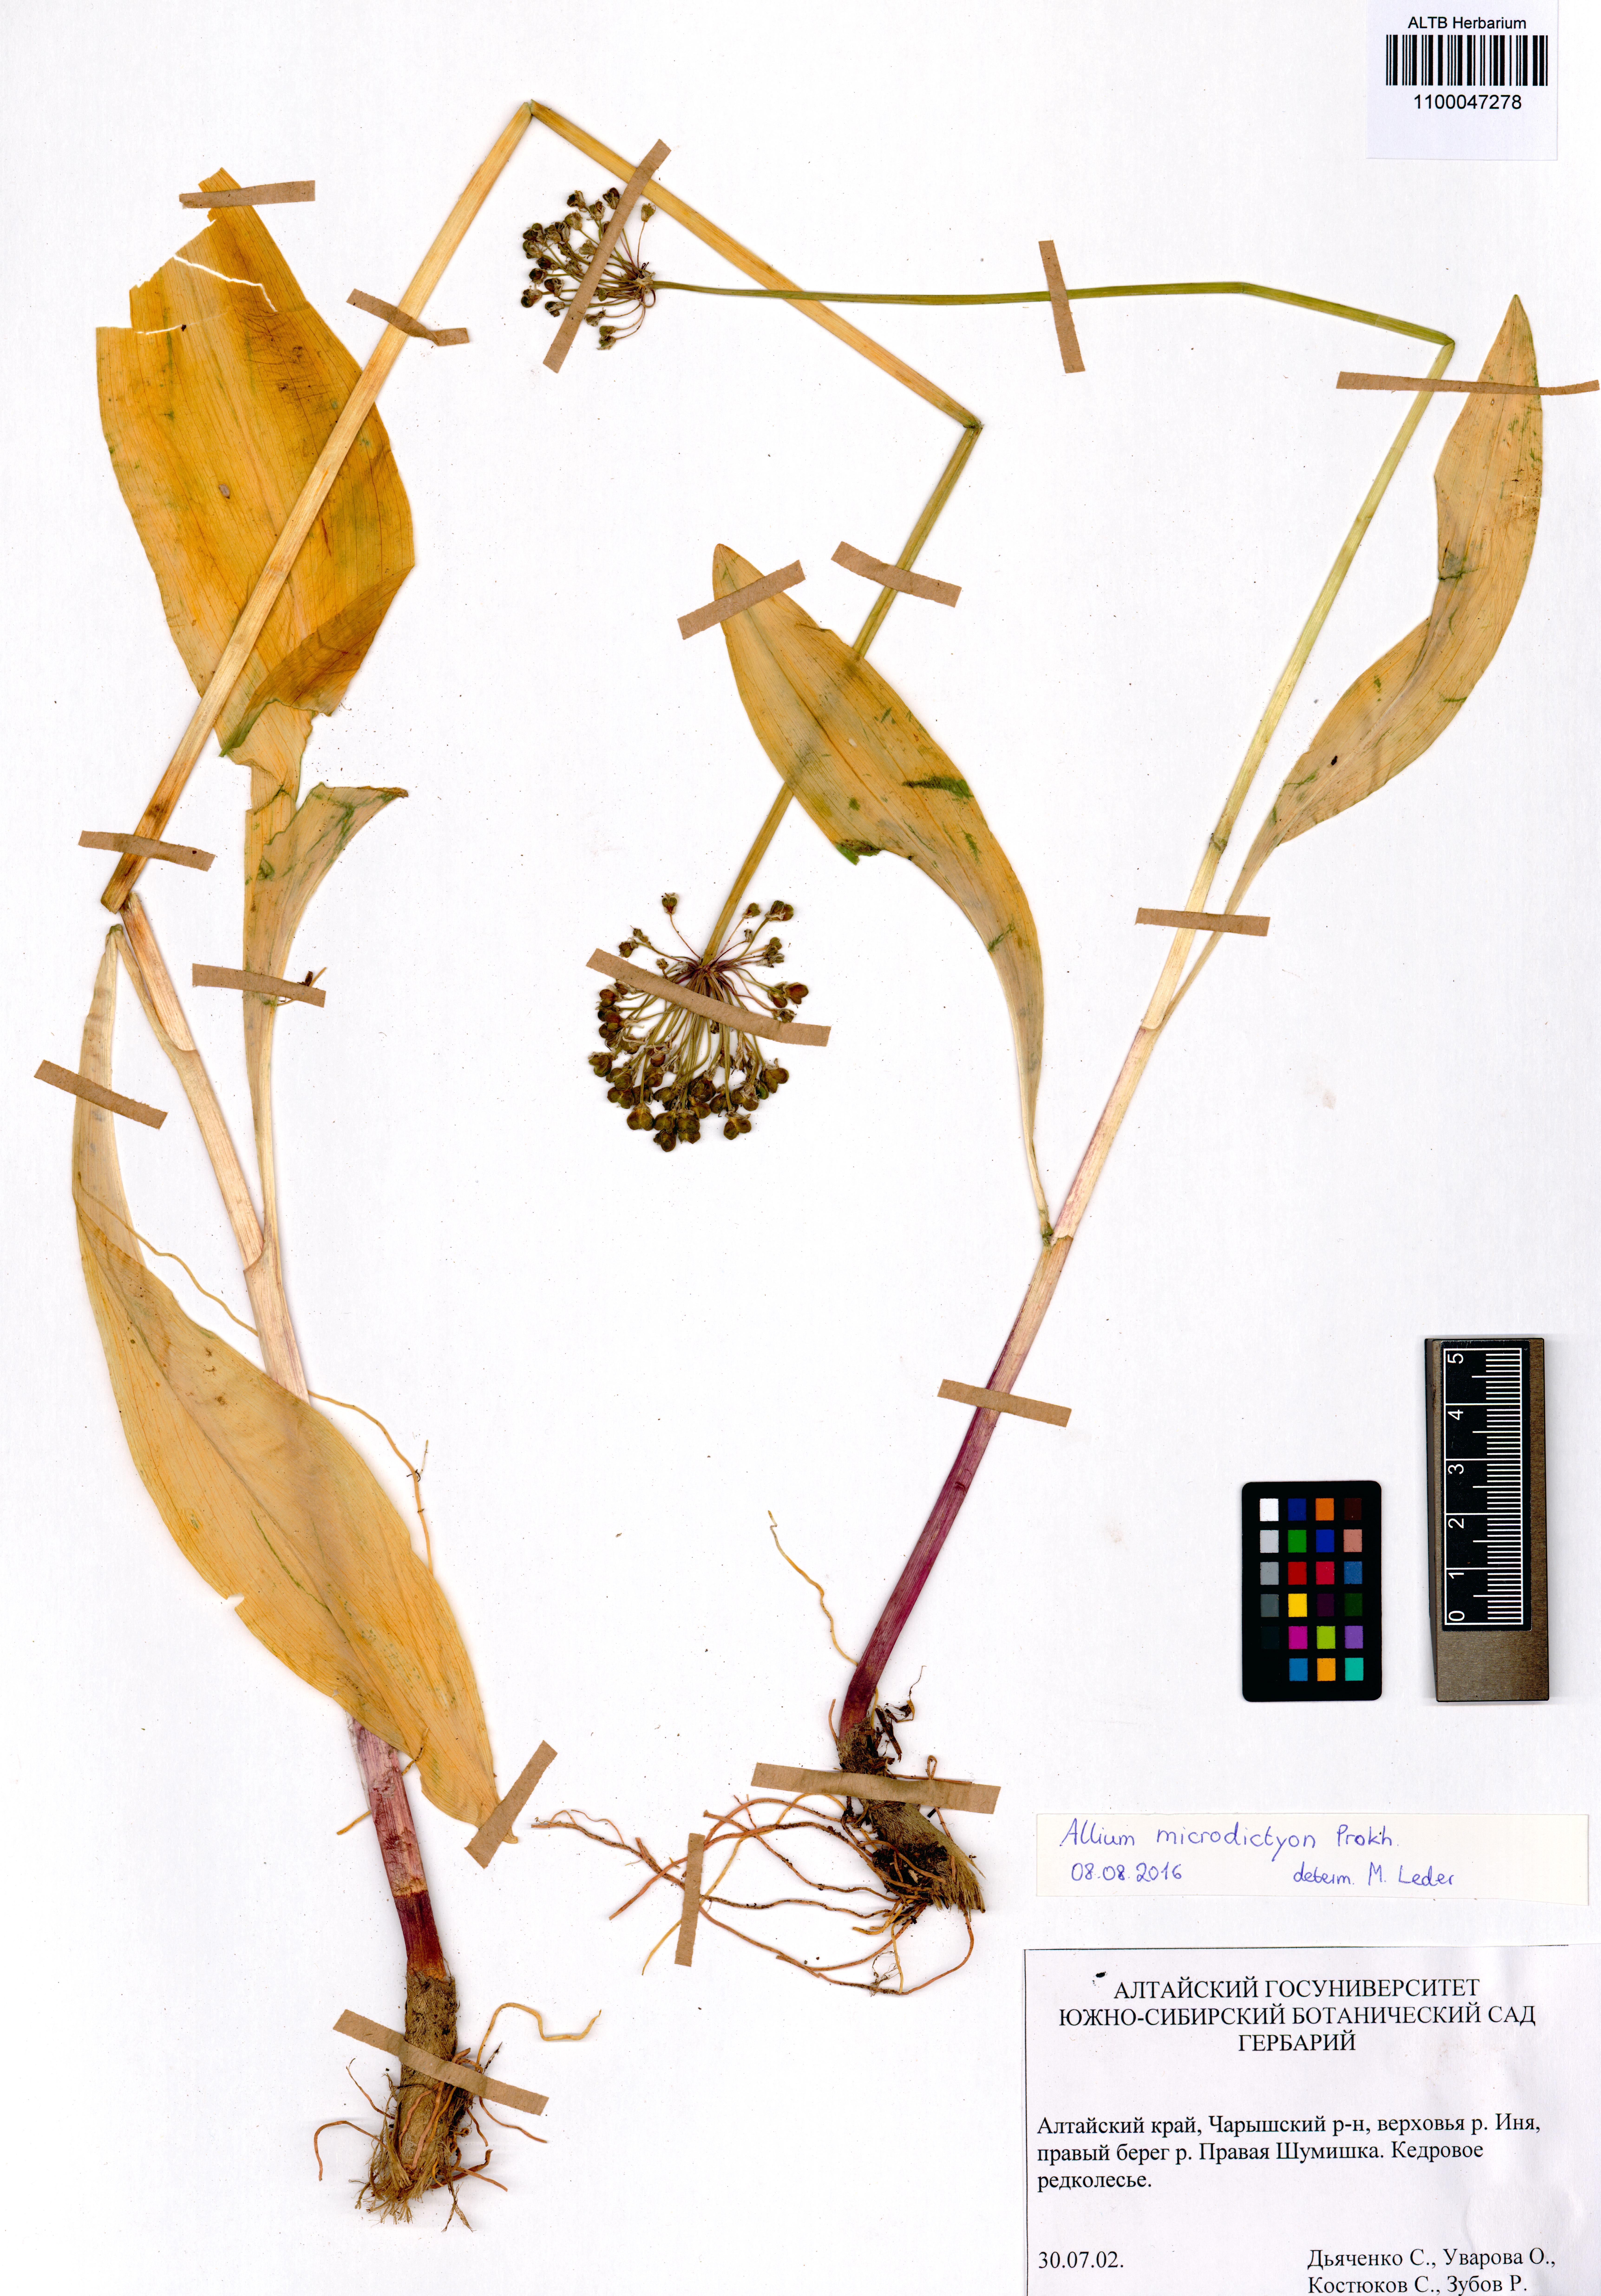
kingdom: Plantae
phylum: Tracheophyta
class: Liliopsida
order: Asparagales
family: Amaryllidaceae
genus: Allium
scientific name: Allium microdictyon
